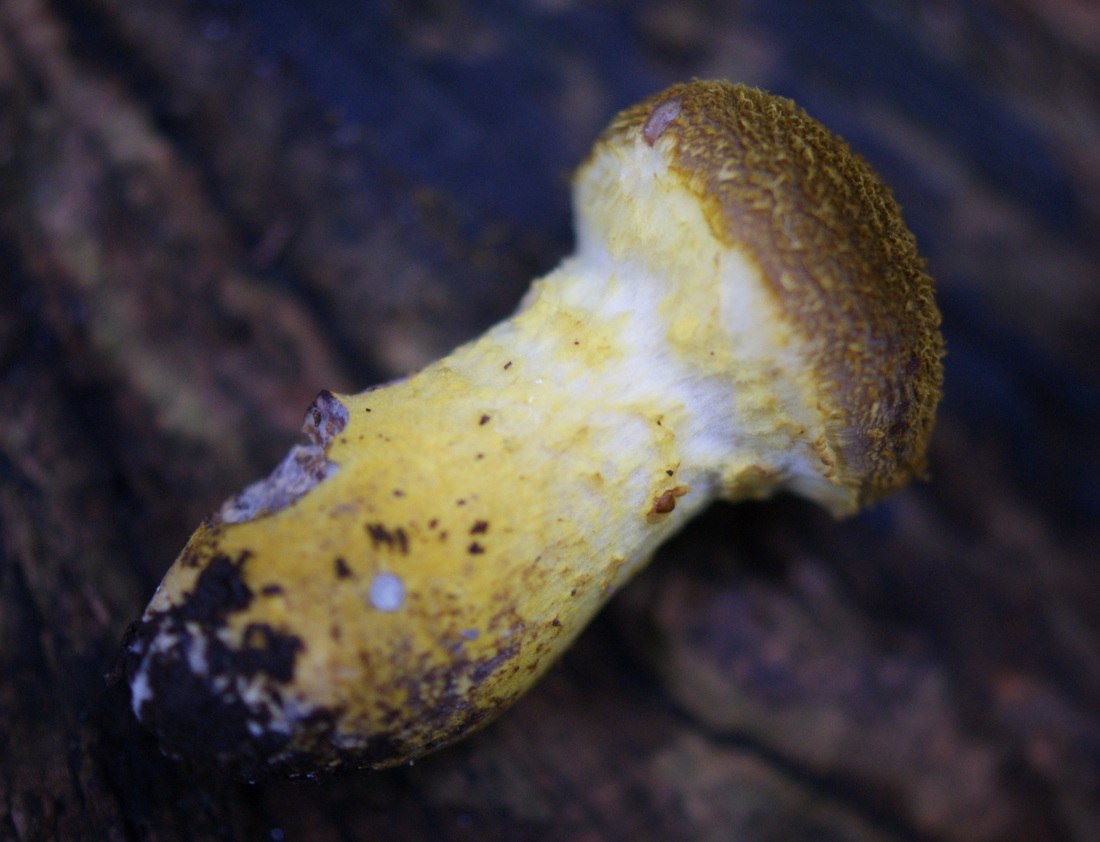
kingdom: Fungi
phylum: Basidiomycota
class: Agaricomycetes
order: Agaricales
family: Physalacriaceae
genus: Armillaria
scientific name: Armillaria lutea
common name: køllestokket honningsvamp
